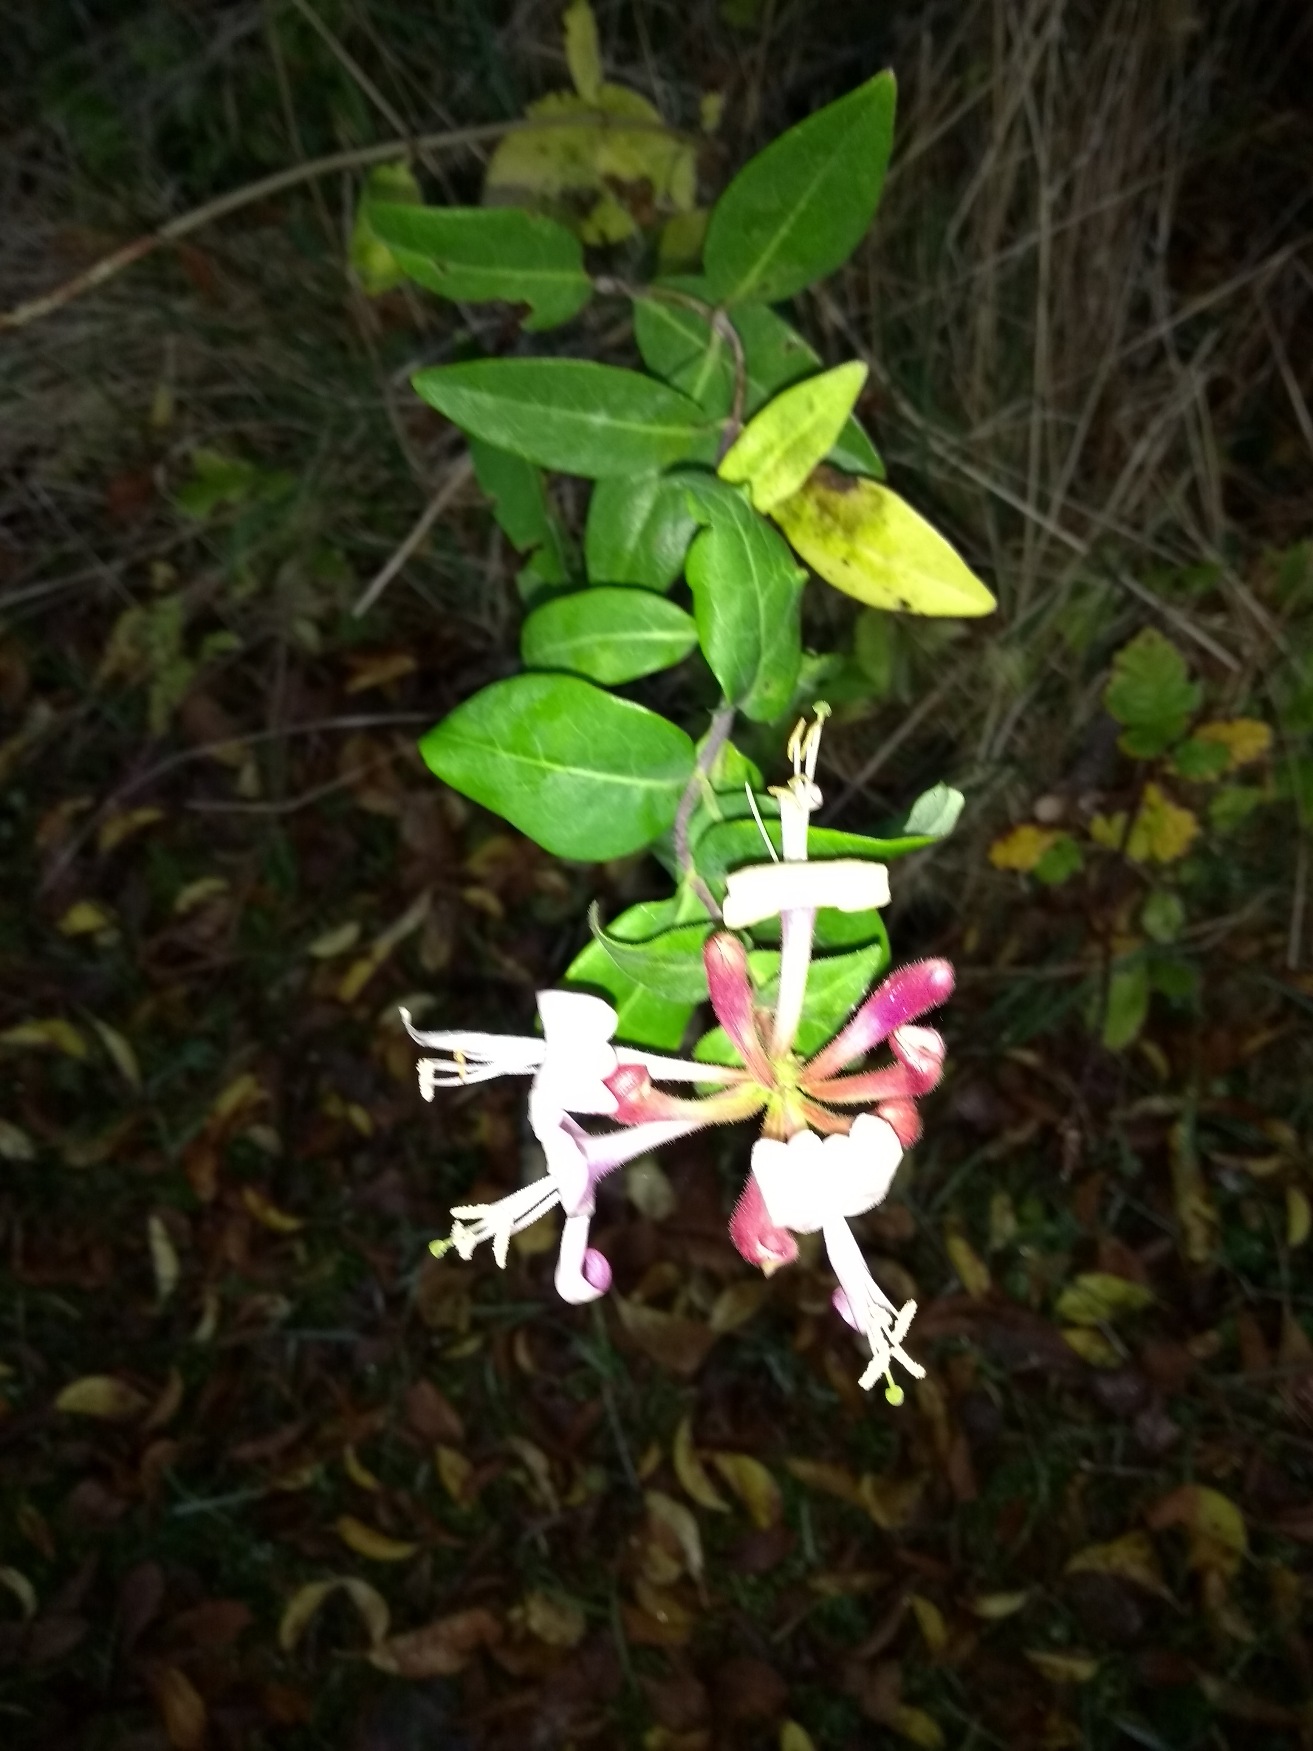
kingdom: Plantae
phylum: Tracheophyta
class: Magnoliopsida
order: Dipsacales
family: Caprifoliaceae
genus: Lonicera
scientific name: Lonicera periclymenum
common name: Almindelig gedeblad
